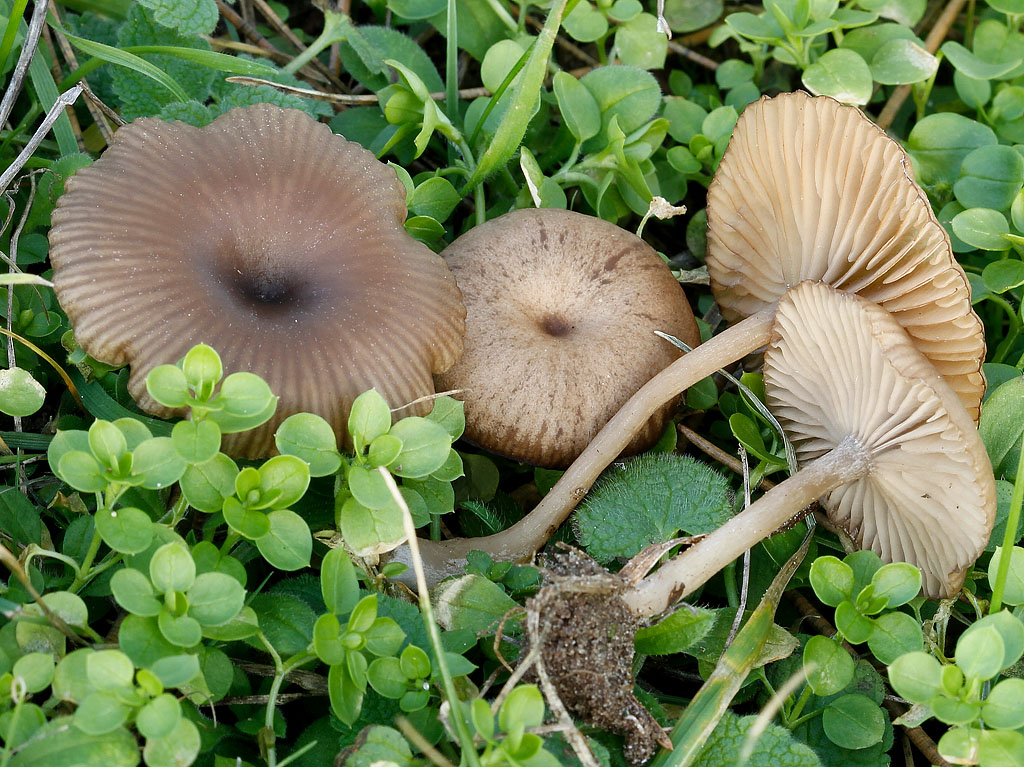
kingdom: Fungi
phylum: Basidiomycota
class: Agaricomycetes
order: Agaricales
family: Pseudoclitocybaceae
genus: Pseudoclitocybe
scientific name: Pseudoclitocybe expallens
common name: lille bægertragthat
